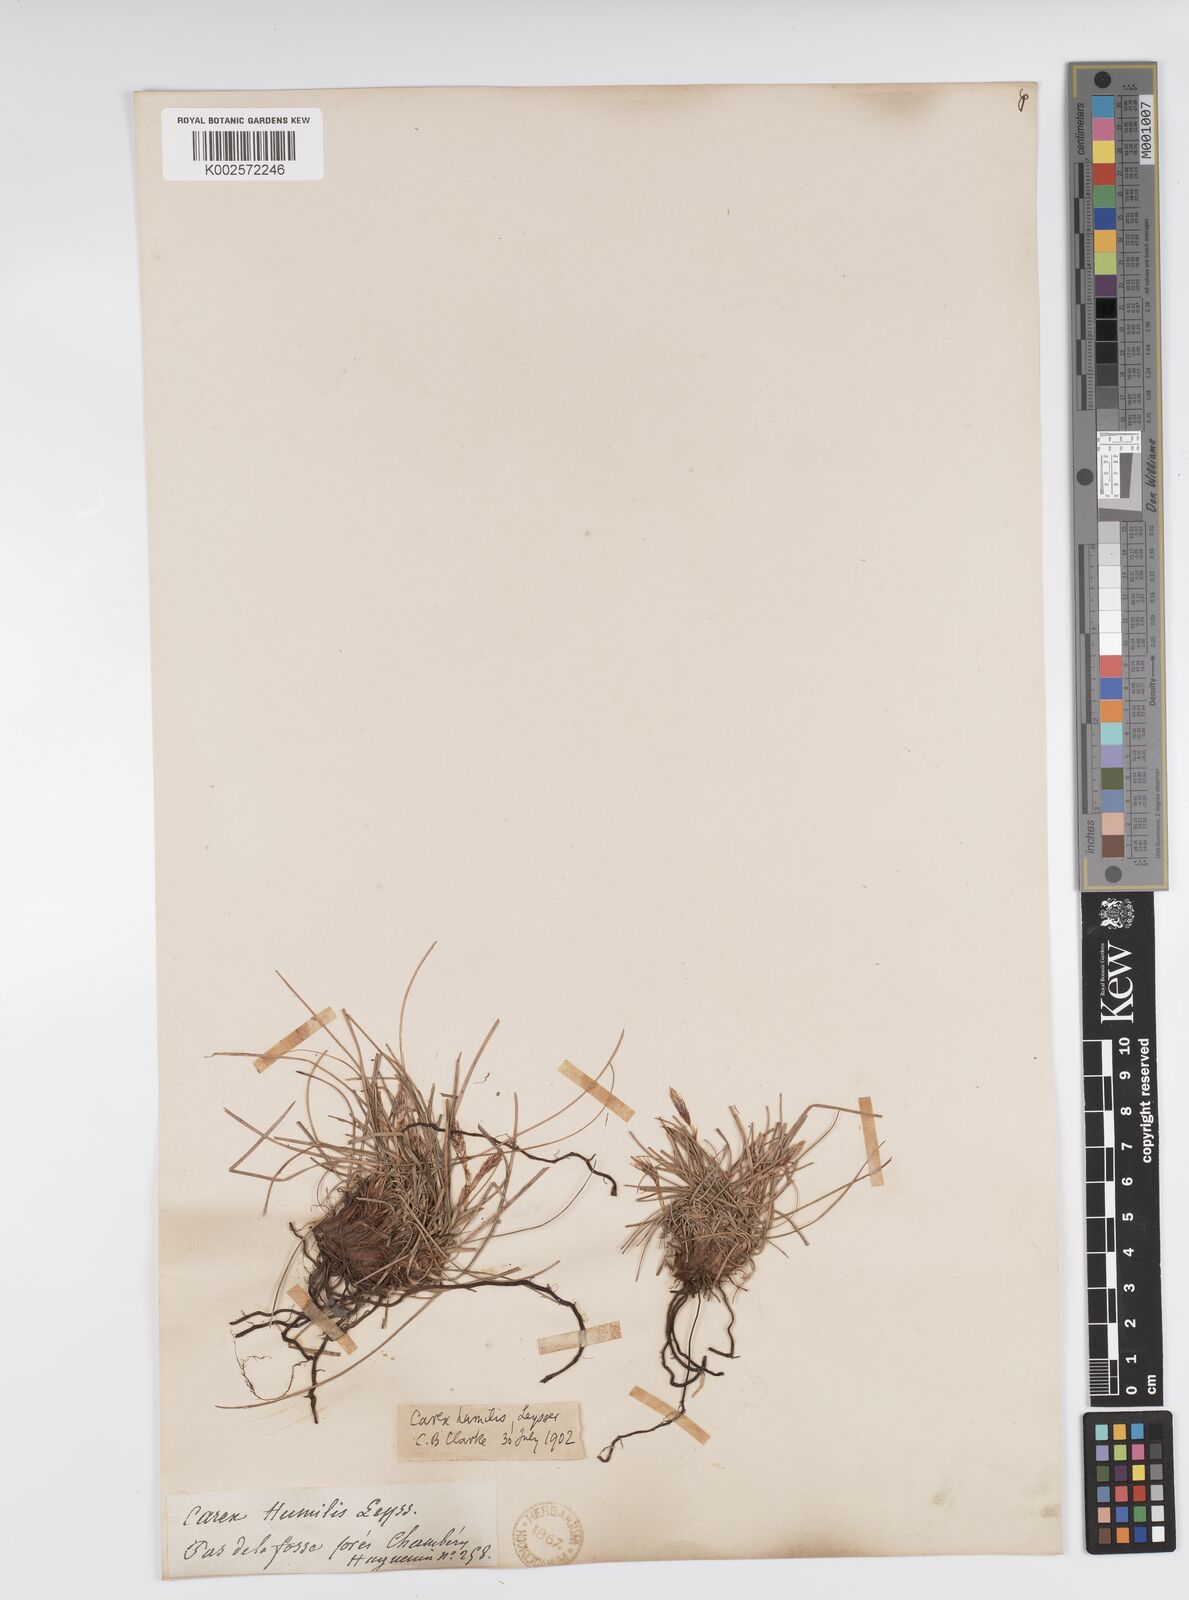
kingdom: Plantae
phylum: Tracheophyta
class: Liliopsida
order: Poales
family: Cyperaceae
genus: Carex
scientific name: Carex humilis
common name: Dwarf sedge
